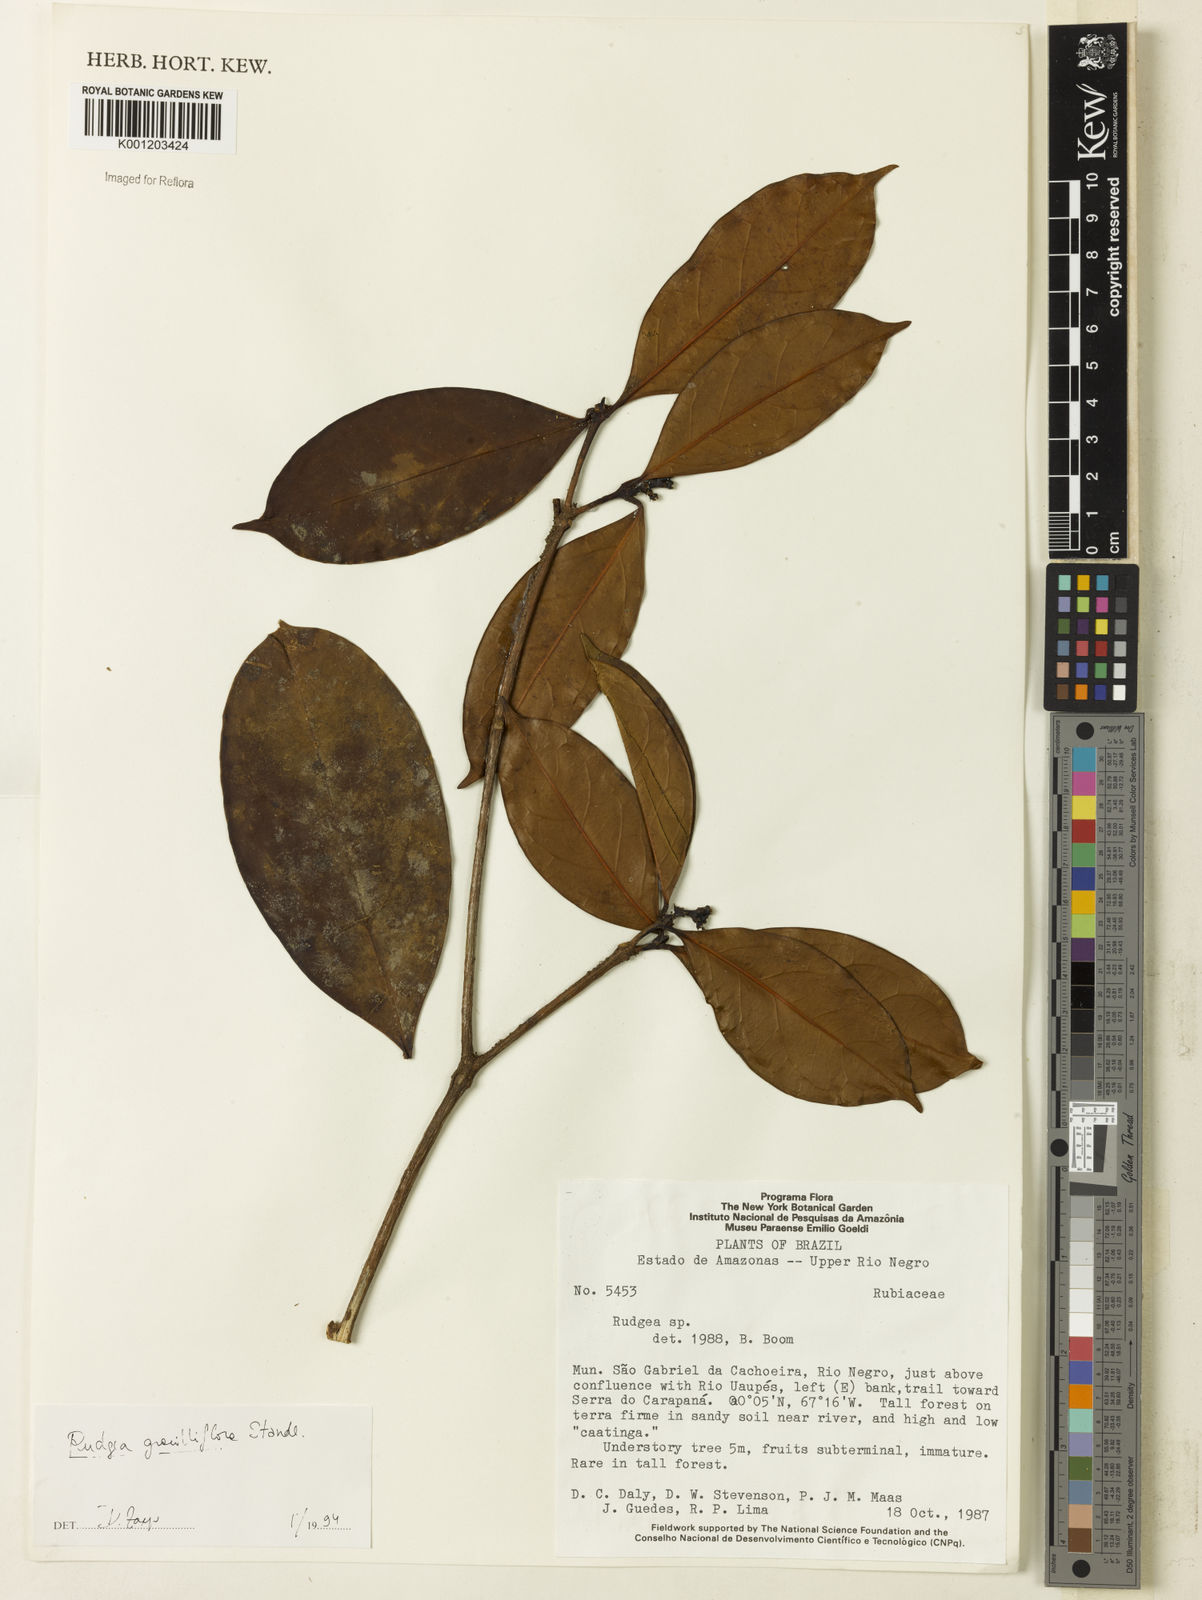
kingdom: Plantae
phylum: Tracheophyta
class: Magnoliopsida
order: Gentianales
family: Rubiaceae
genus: Rudgea
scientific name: Rudgea graciliflora
